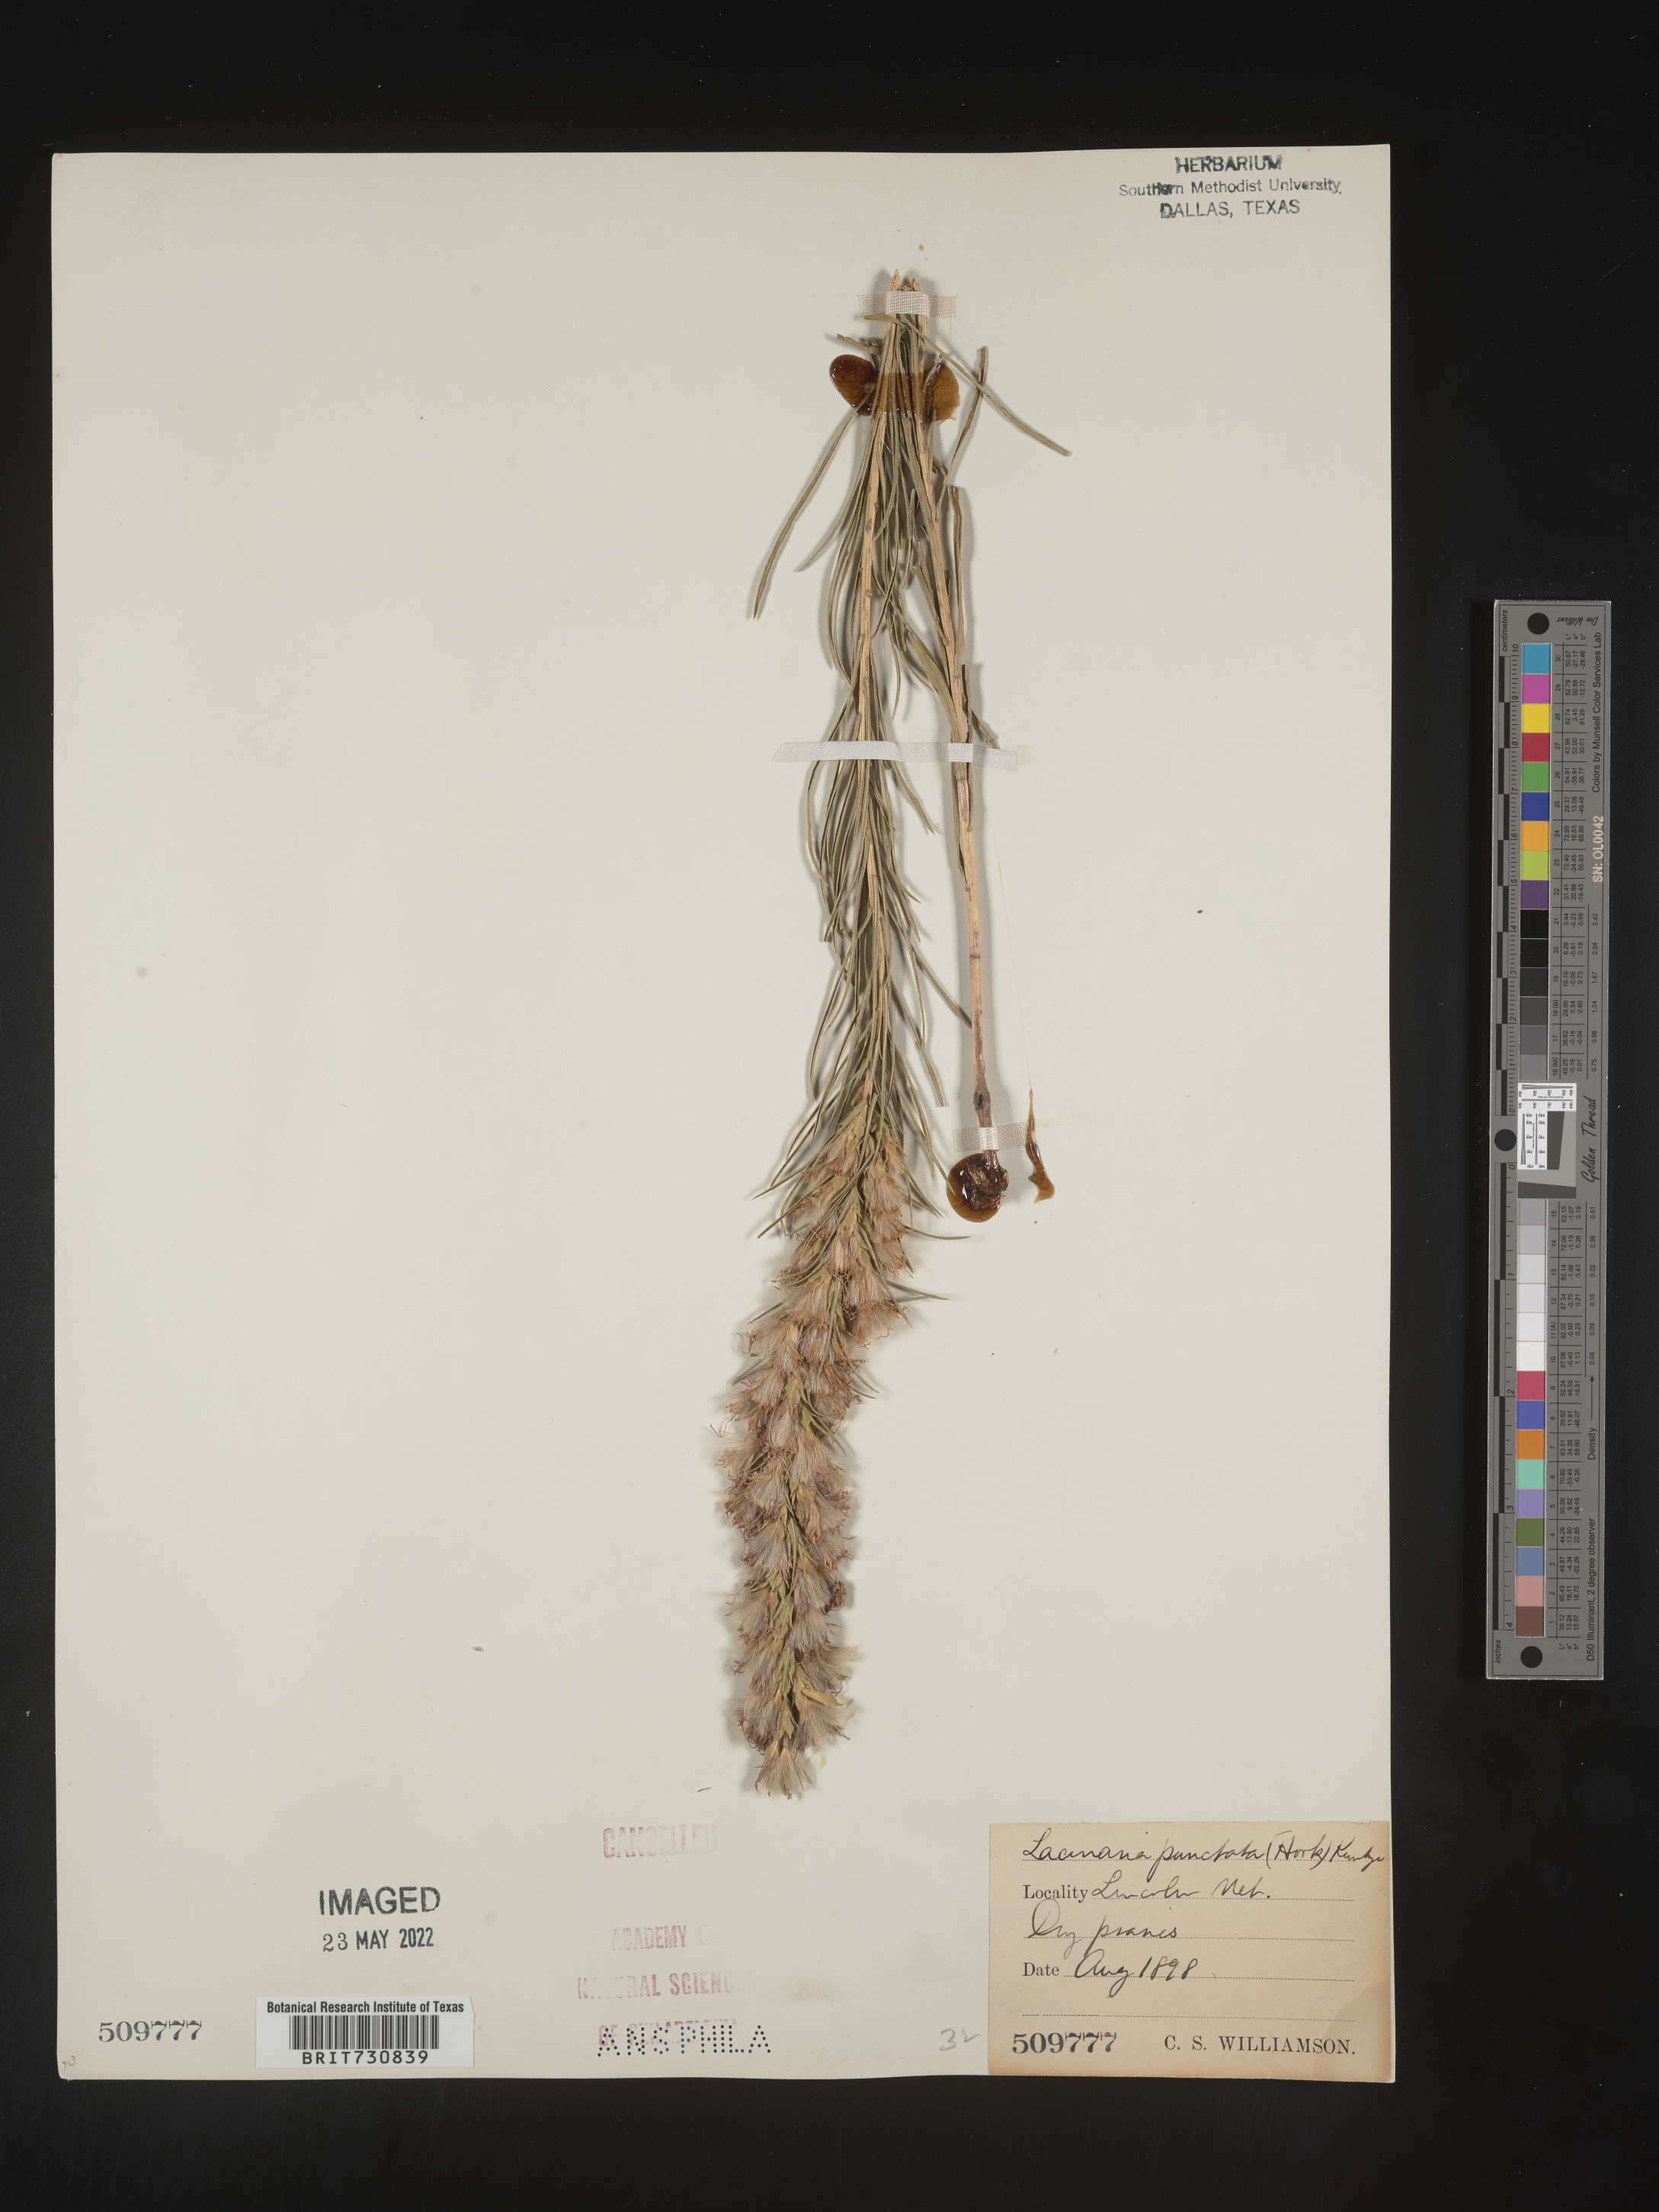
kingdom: Plantae
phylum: Tracheophyta
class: Magnoliopsida
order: Asterales
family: Asteraceae
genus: Liatris
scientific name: Liatris punctata
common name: Dotted gayfeather
